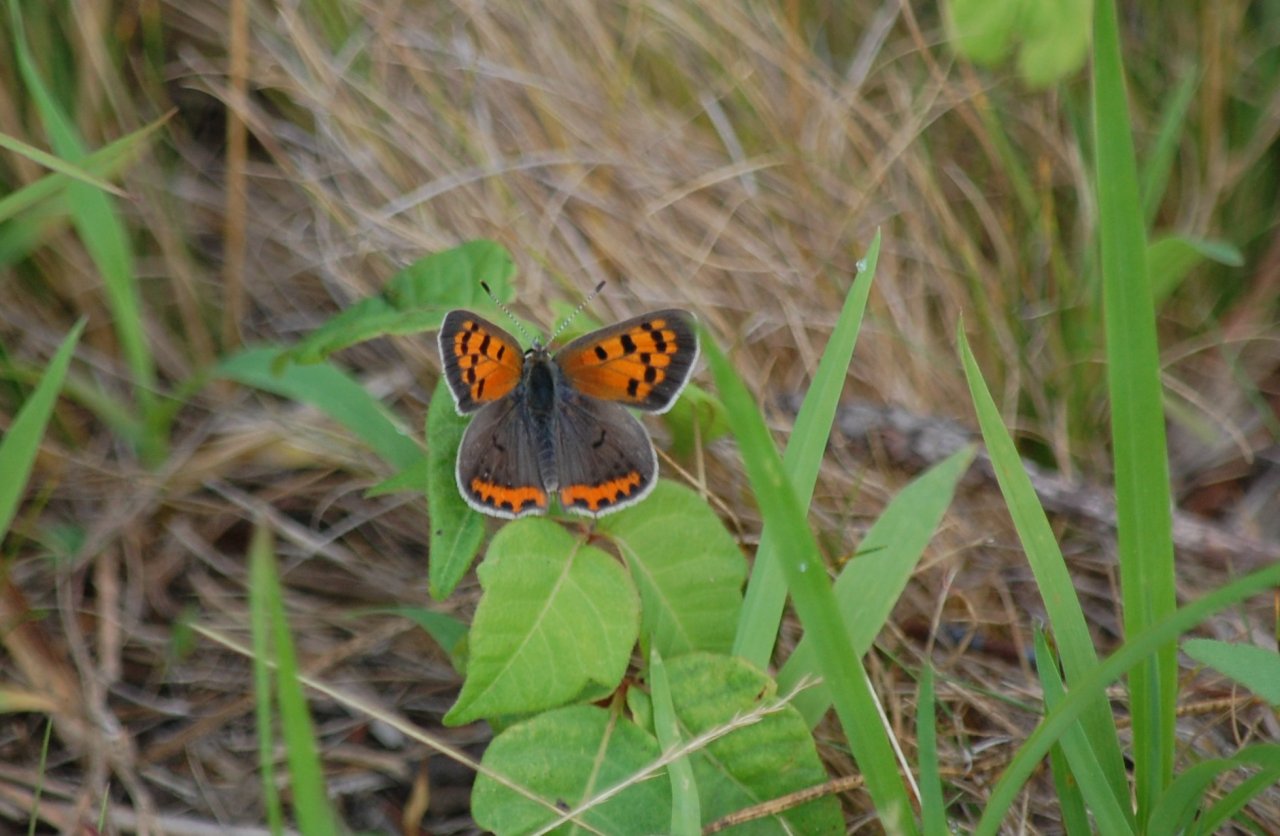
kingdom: Animalia
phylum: Arthropoda
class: Insecta
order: Lepidoptera
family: Lycaenidae
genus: Lycaena
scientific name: Lycaena phlaeas
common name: American Copper
